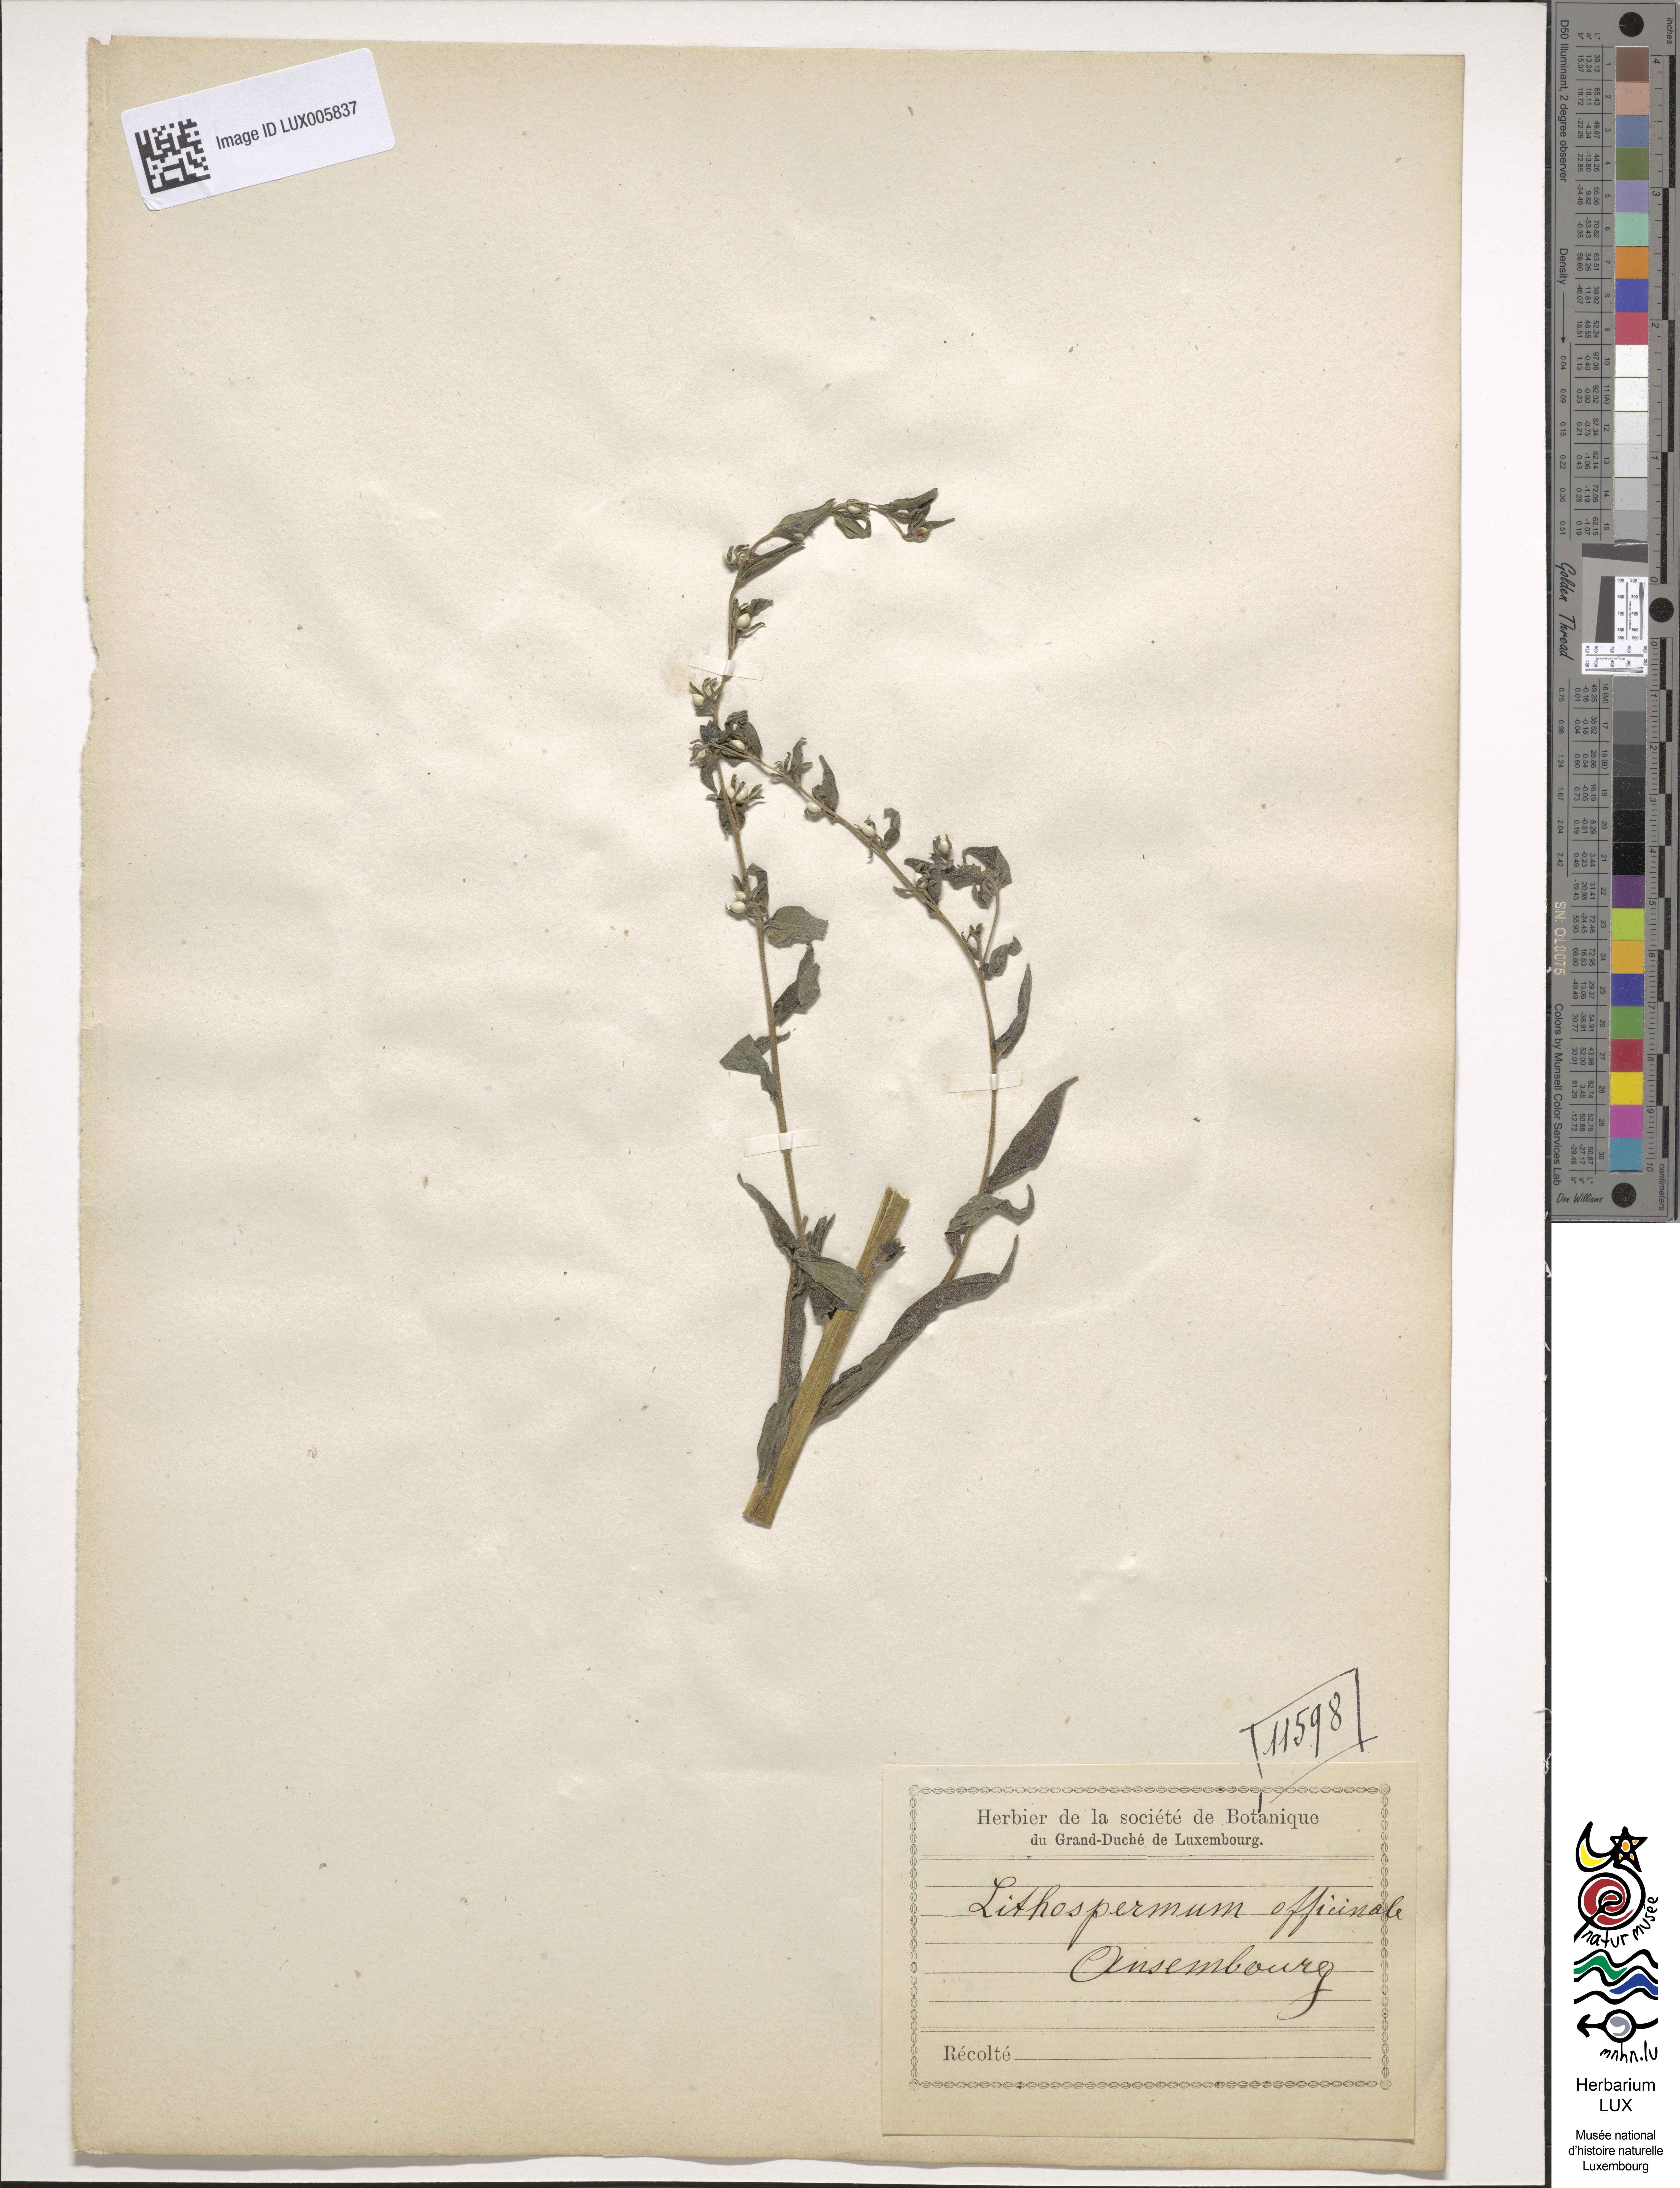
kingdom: Plantae
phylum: Tracheophyta
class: Magnoliopsida
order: Boraginales
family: Boraginaceae
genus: Lithospermum
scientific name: Lithospermum officinale
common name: Common gromwell
